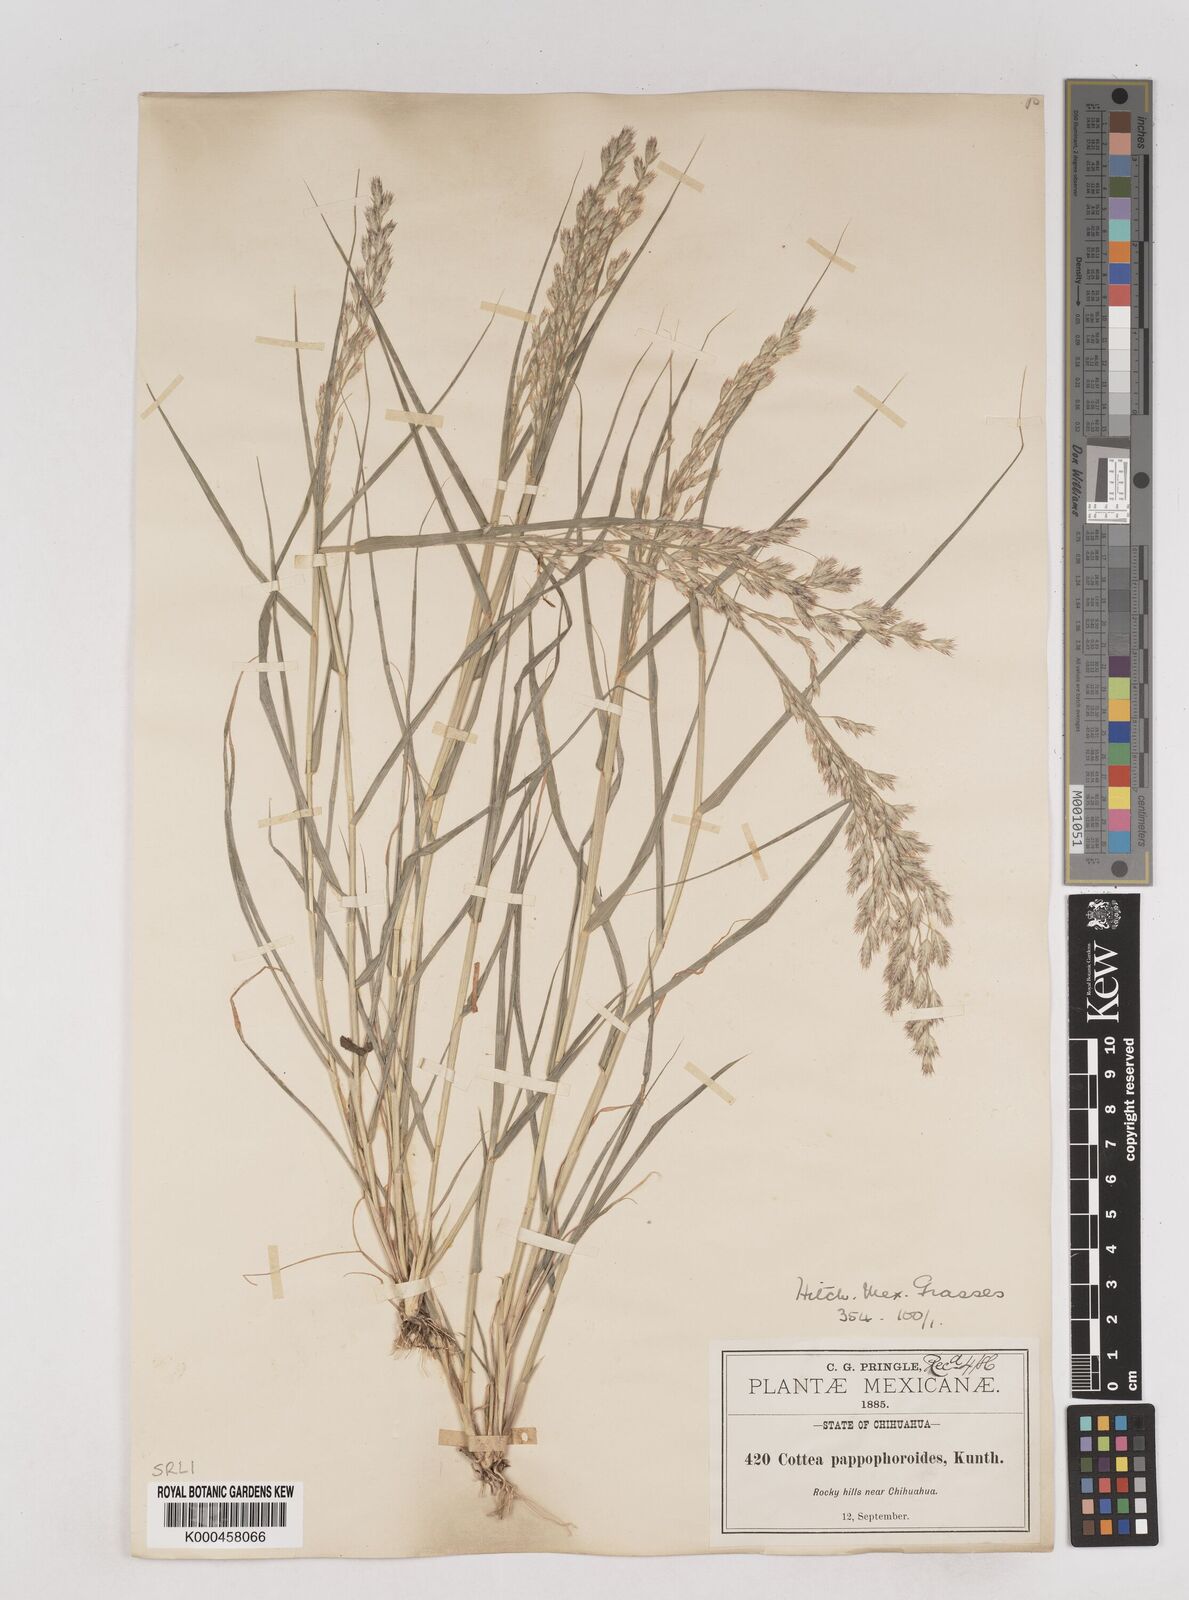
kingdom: Plantae
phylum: Tracheophyta
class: Liliopsida
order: Poales
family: Poaceae
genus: Cottea
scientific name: Cottea
